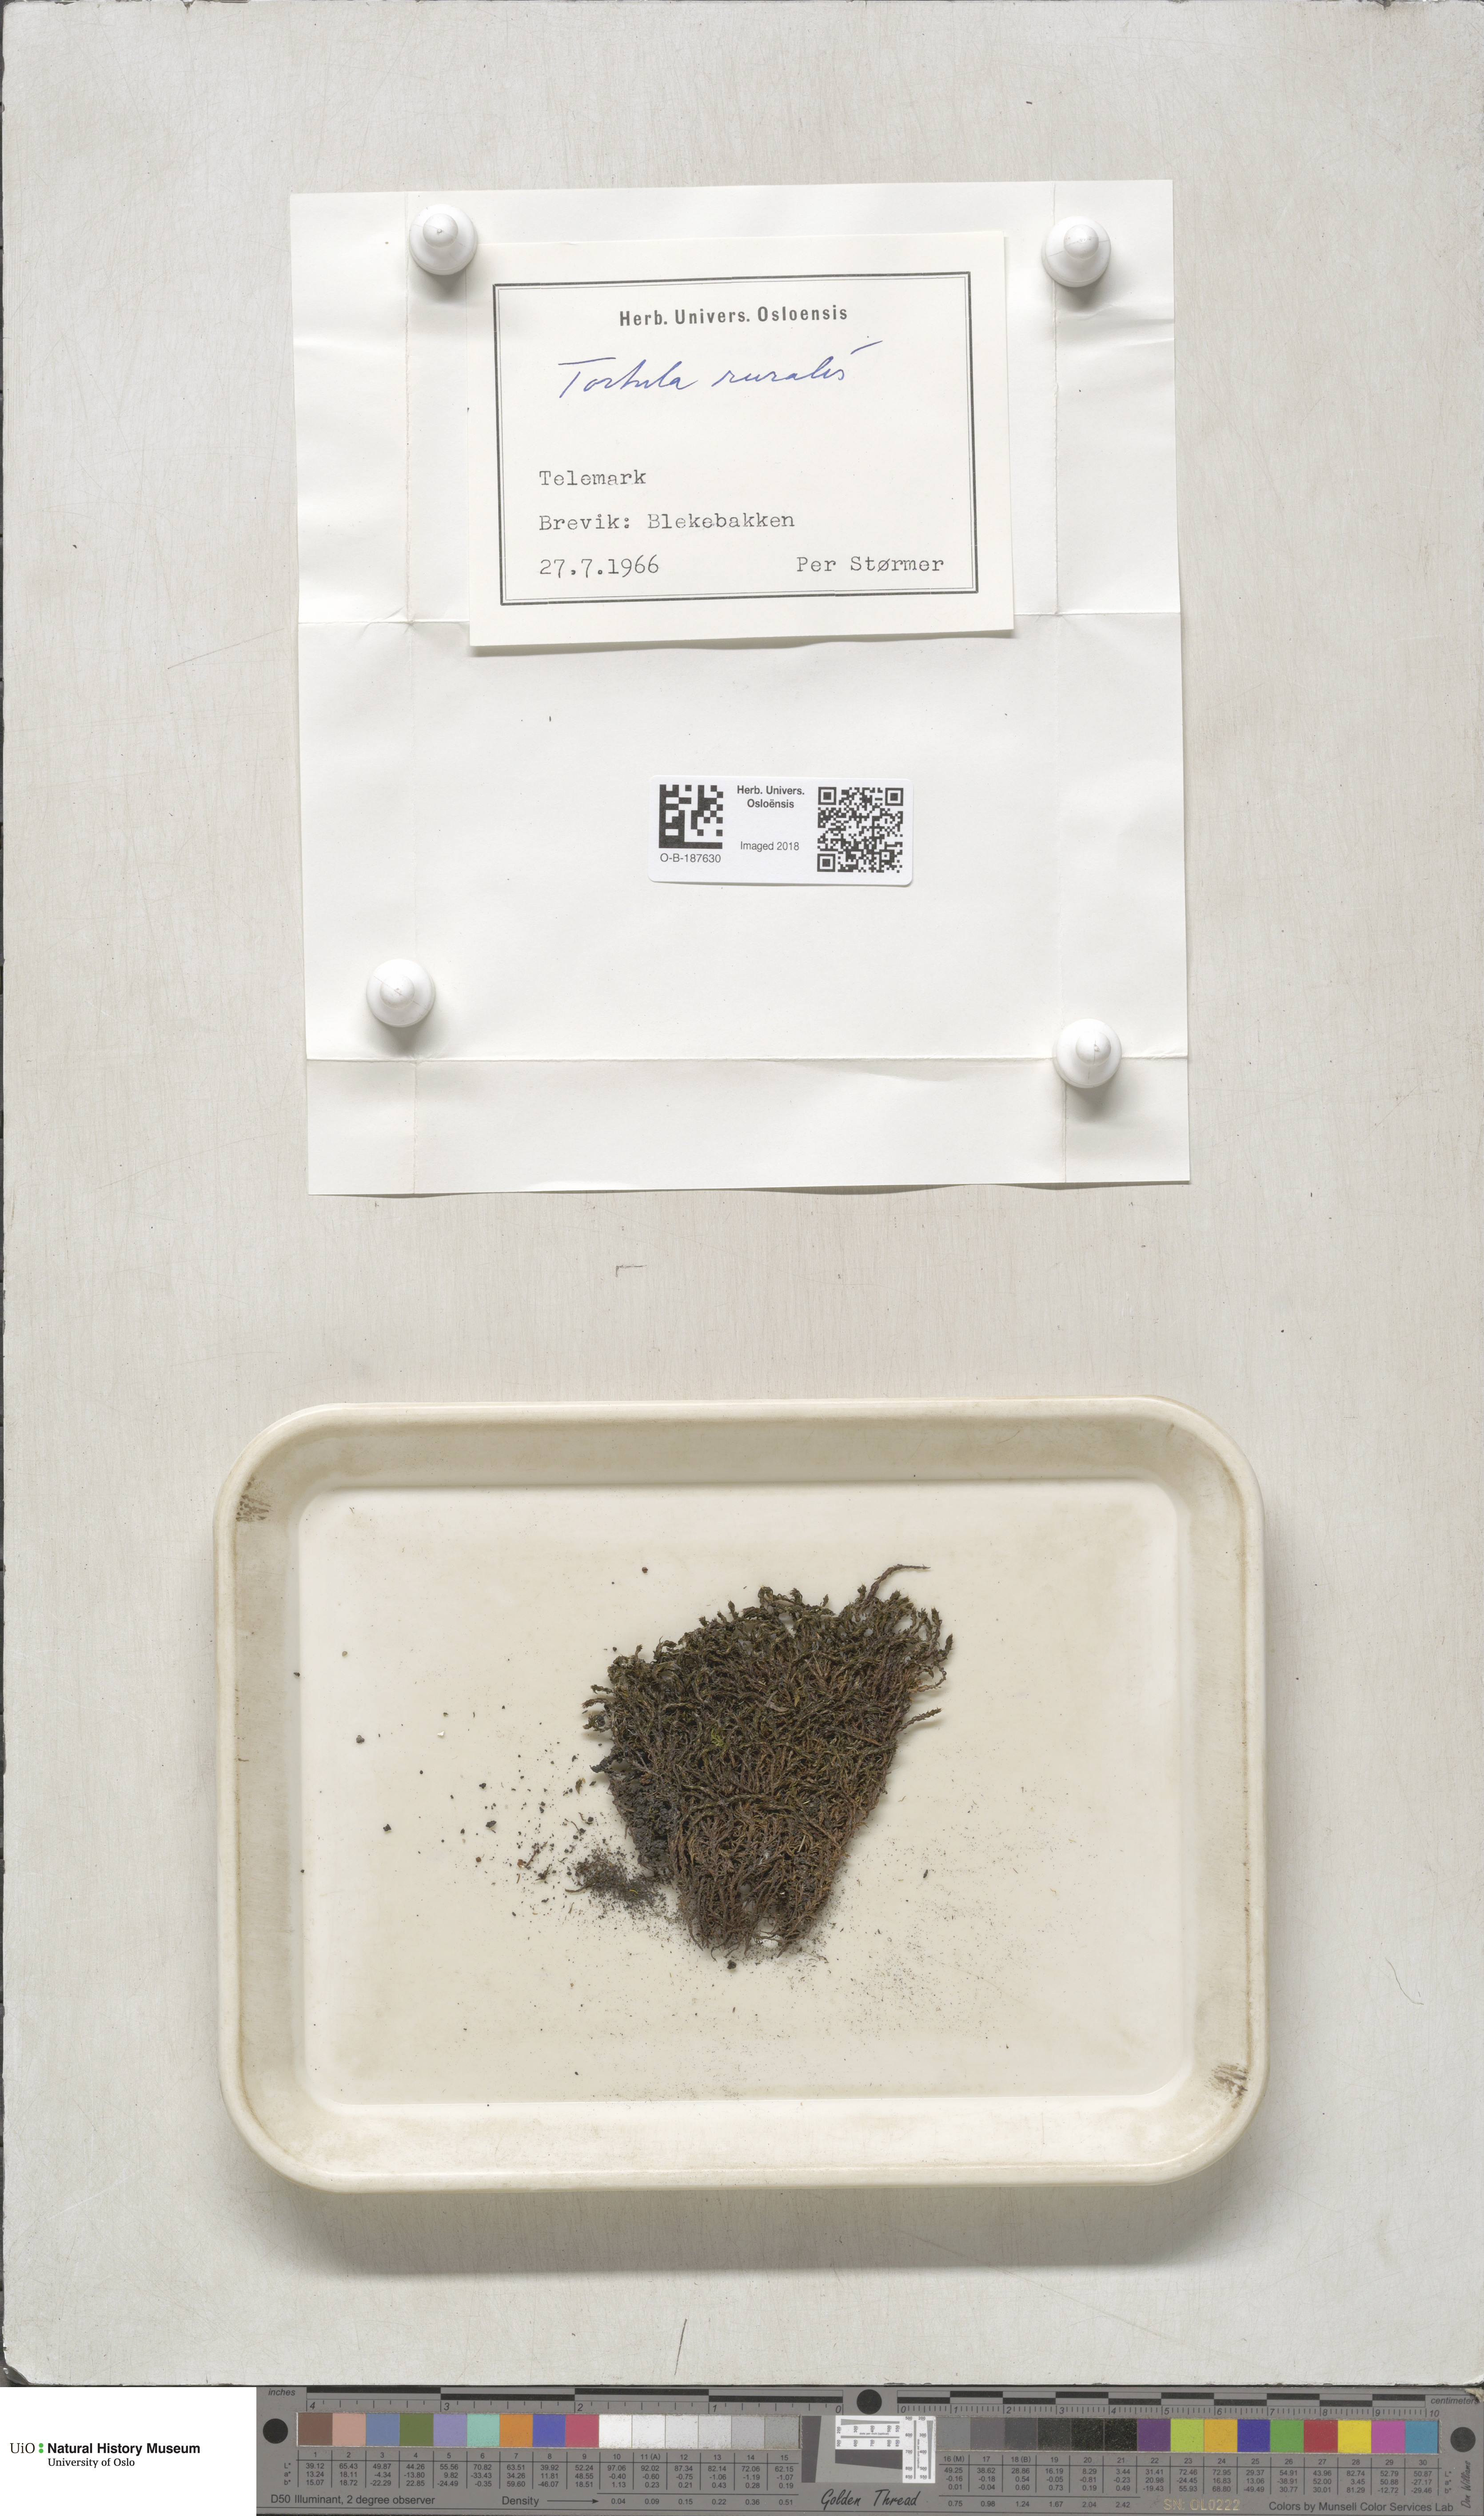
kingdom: Plantae
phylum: Bryophyta
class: Bryopsida
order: Pottiales
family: Pottiaceae
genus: Syntrichia
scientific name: Syntrichia ruralis
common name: Sidewalk screw moss
